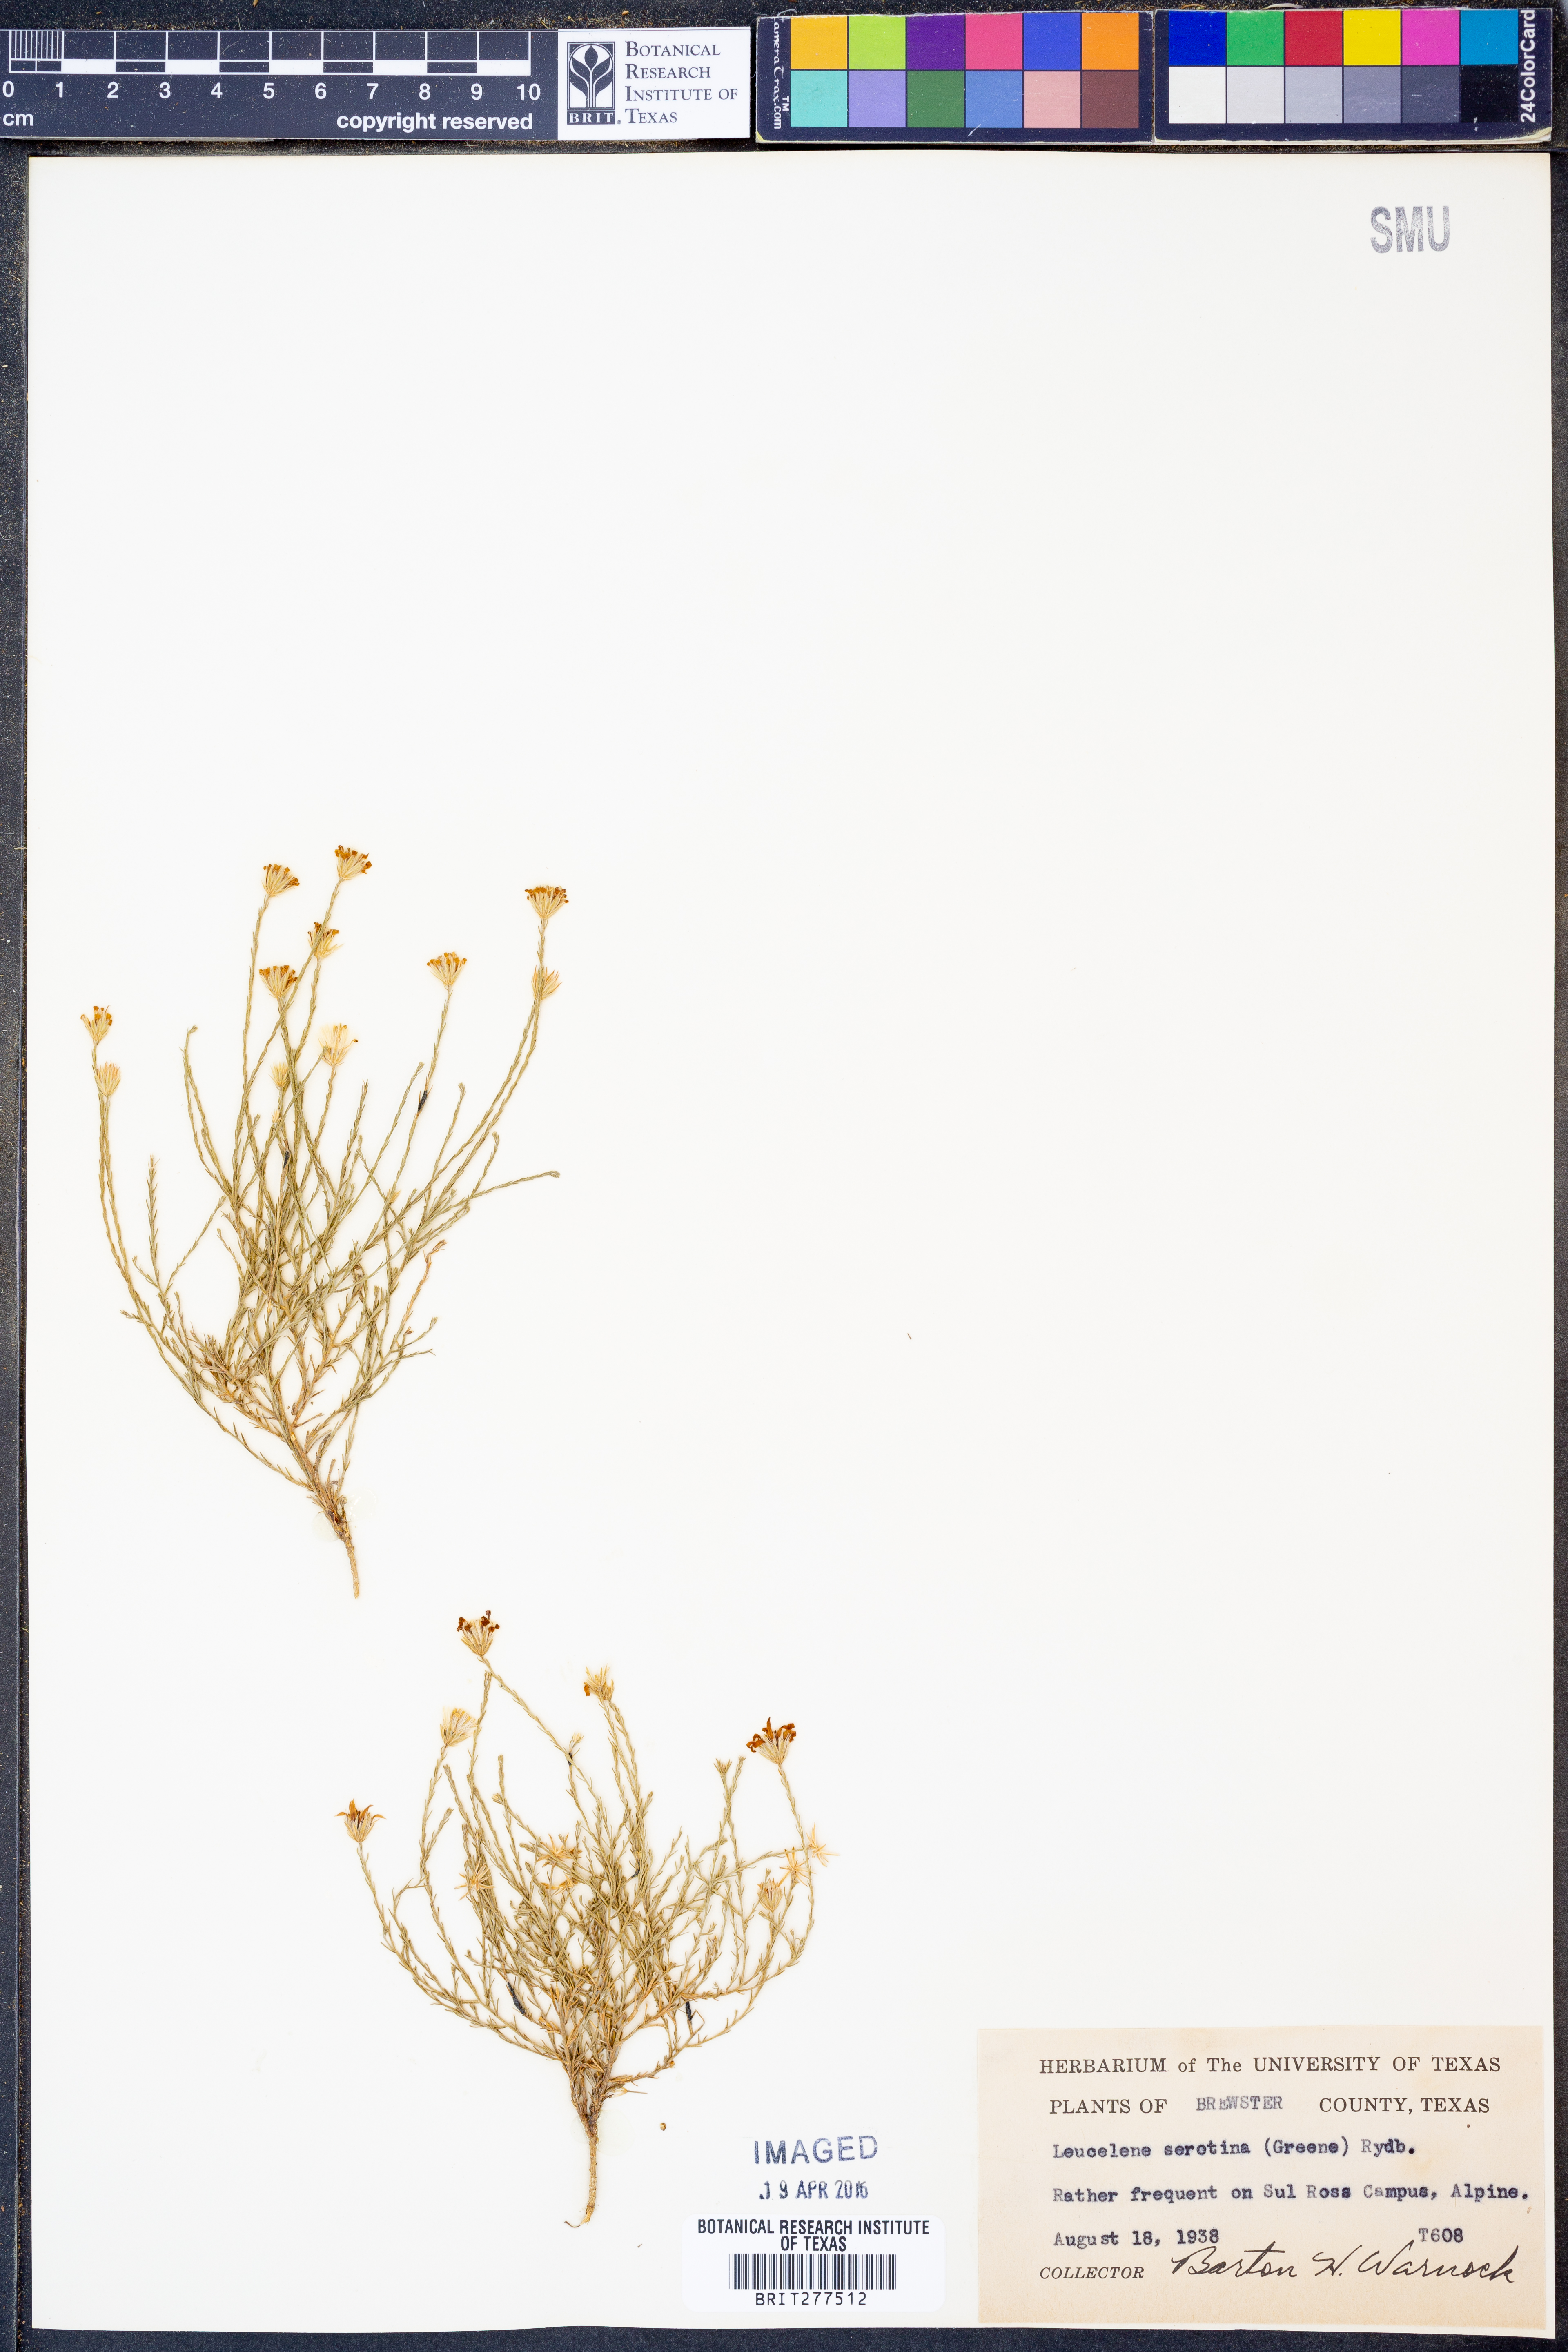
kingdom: Plantae
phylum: Tracheophyta
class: Magnoliopsida
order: Asterales
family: Asteraceae
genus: Chaetopappa
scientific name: Chaetopappa ericoides
